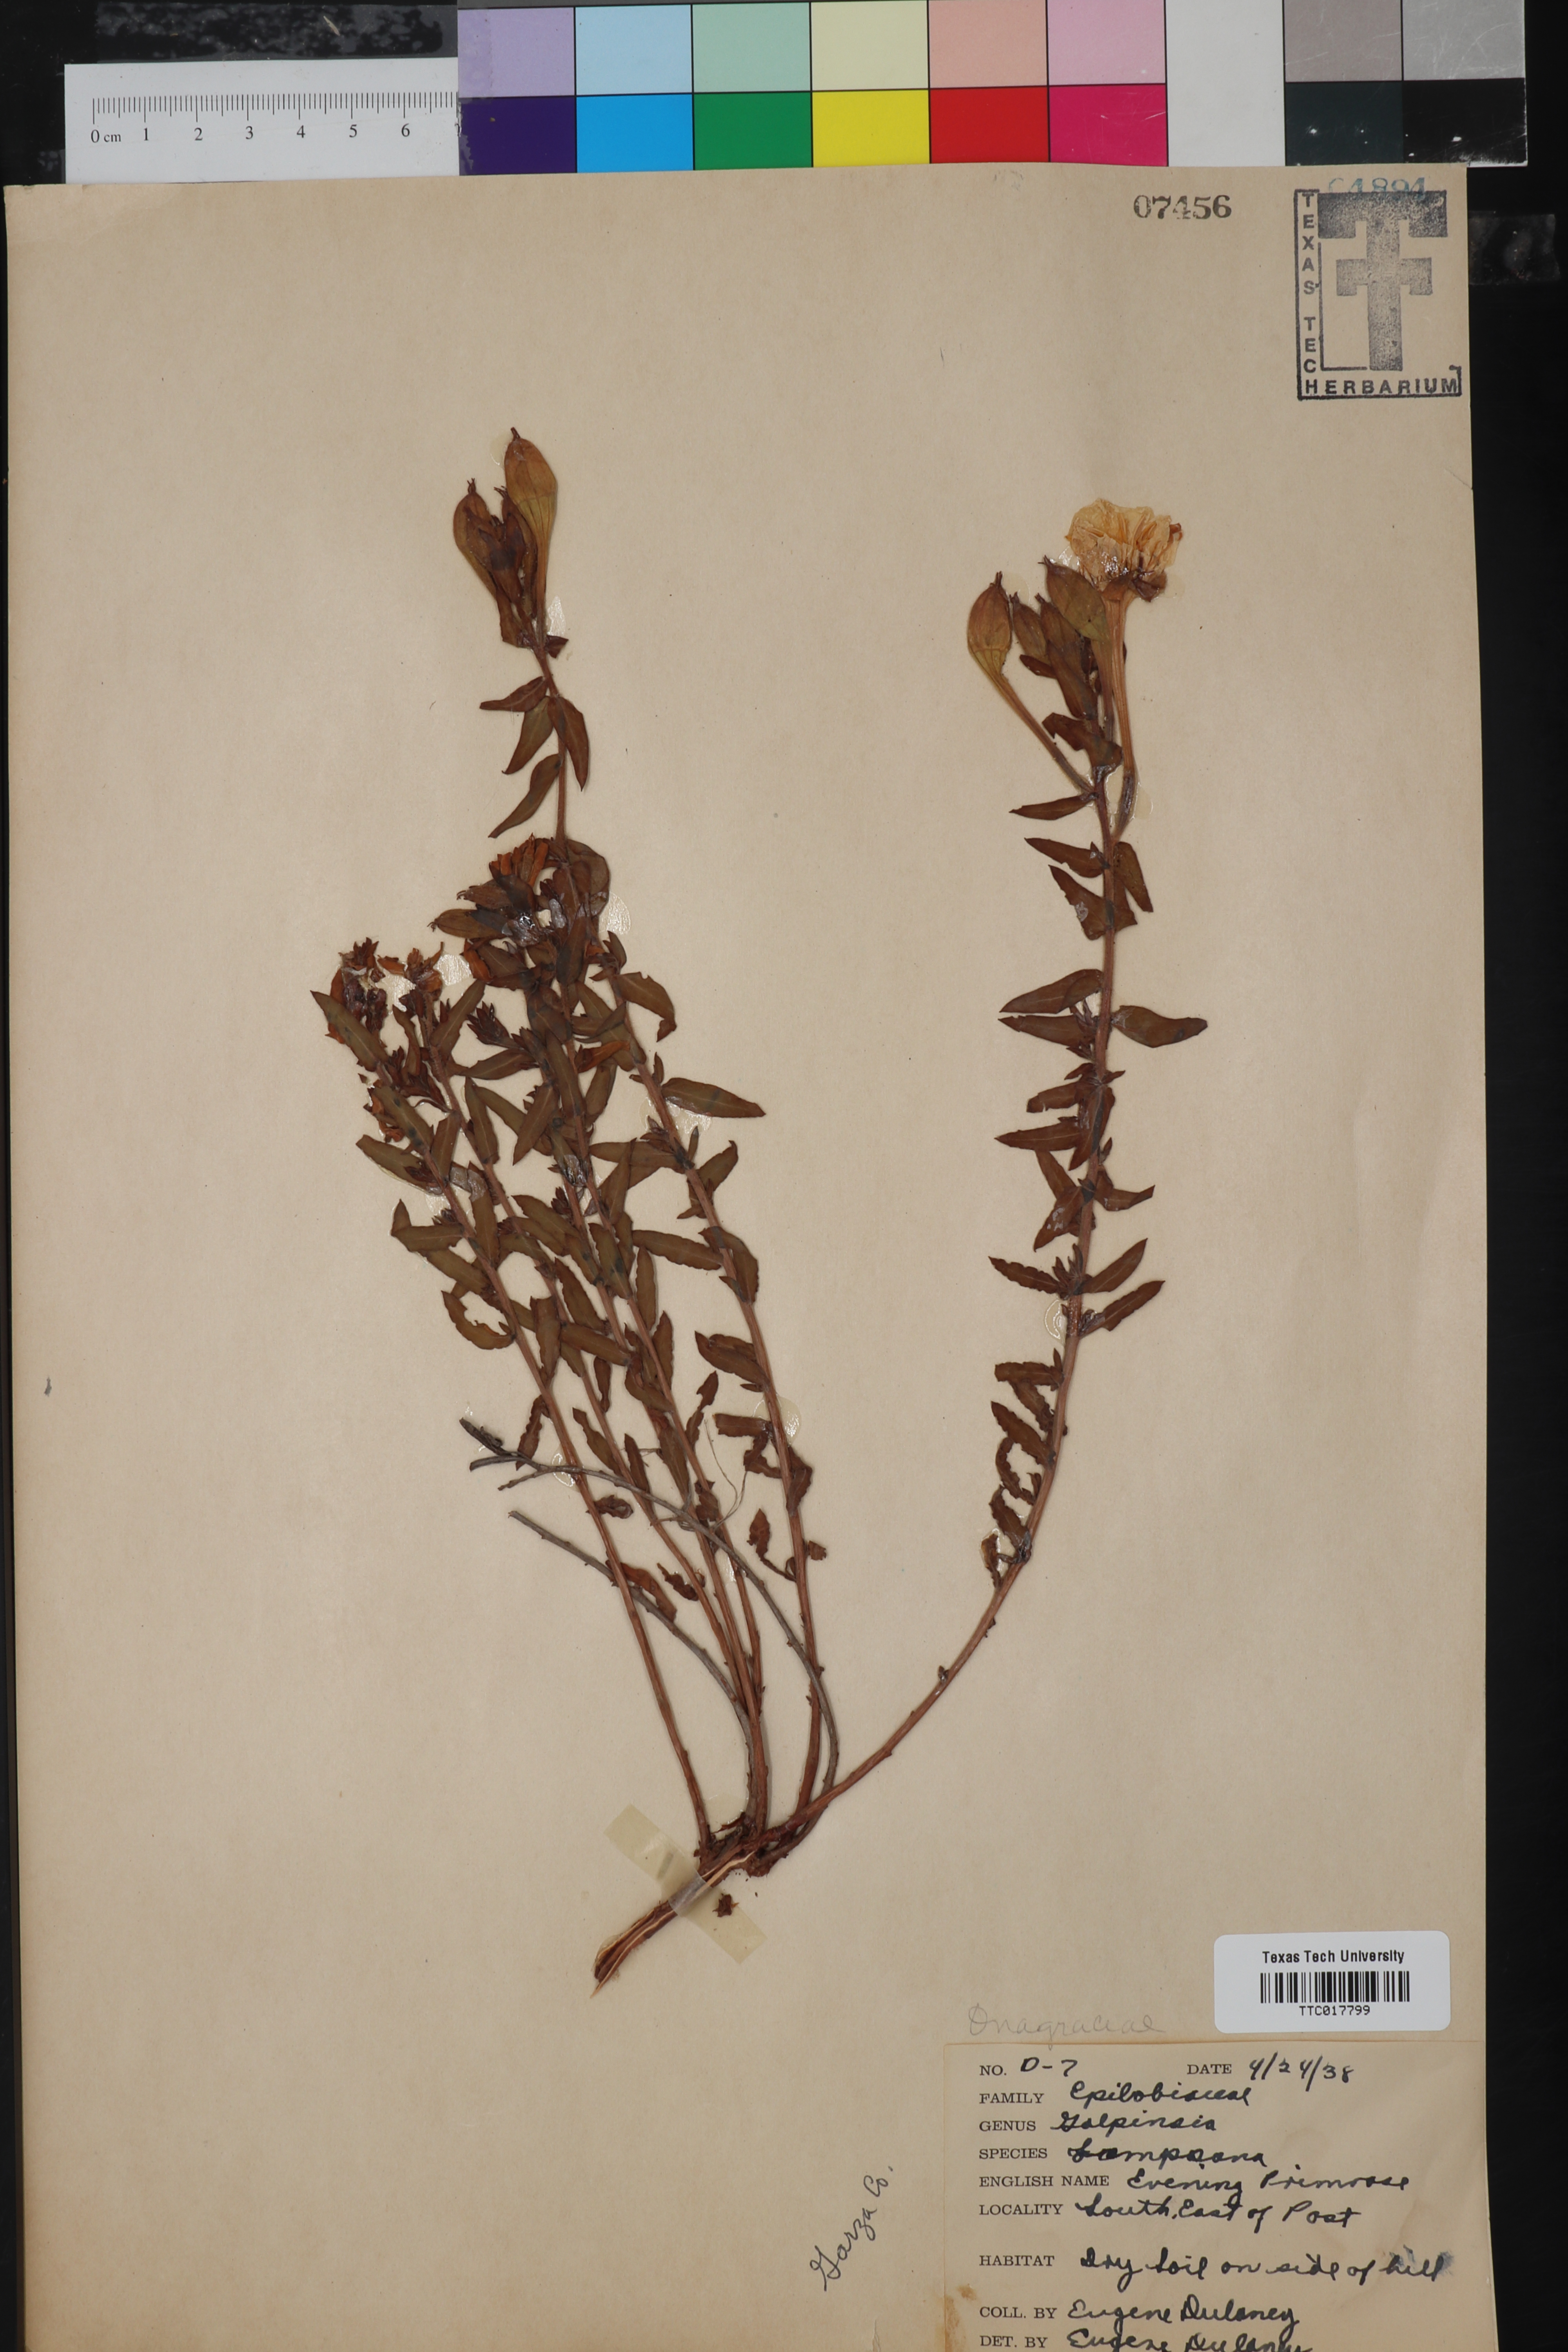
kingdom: Plantae
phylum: Tracheophyta
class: Magnoliopsida
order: Myrtales
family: Onagraceae
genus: Oenothera
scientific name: Oenothera hartwegii
